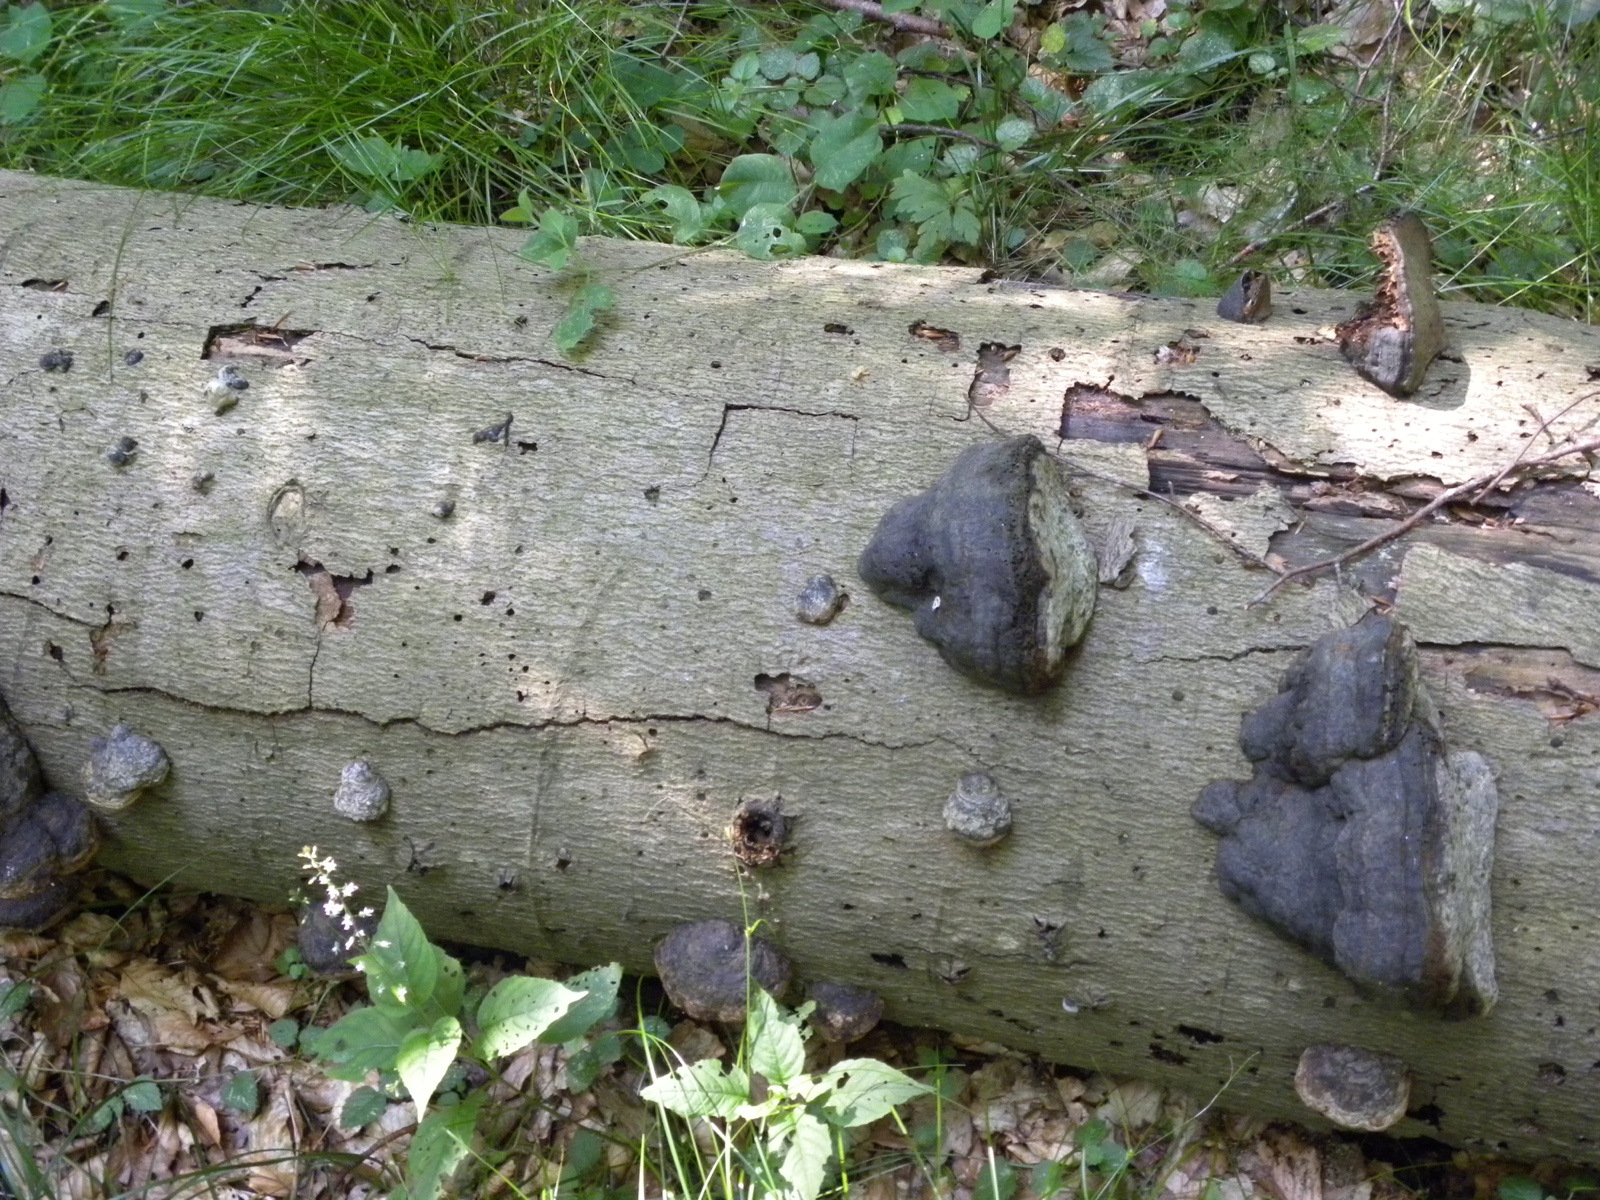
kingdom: Fungi
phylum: Basidiomycota
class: Agaricomycetes
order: Polyporales
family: Polyporaceae
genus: Fomes
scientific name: Fomes fomentarius
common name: tøndersvamp
